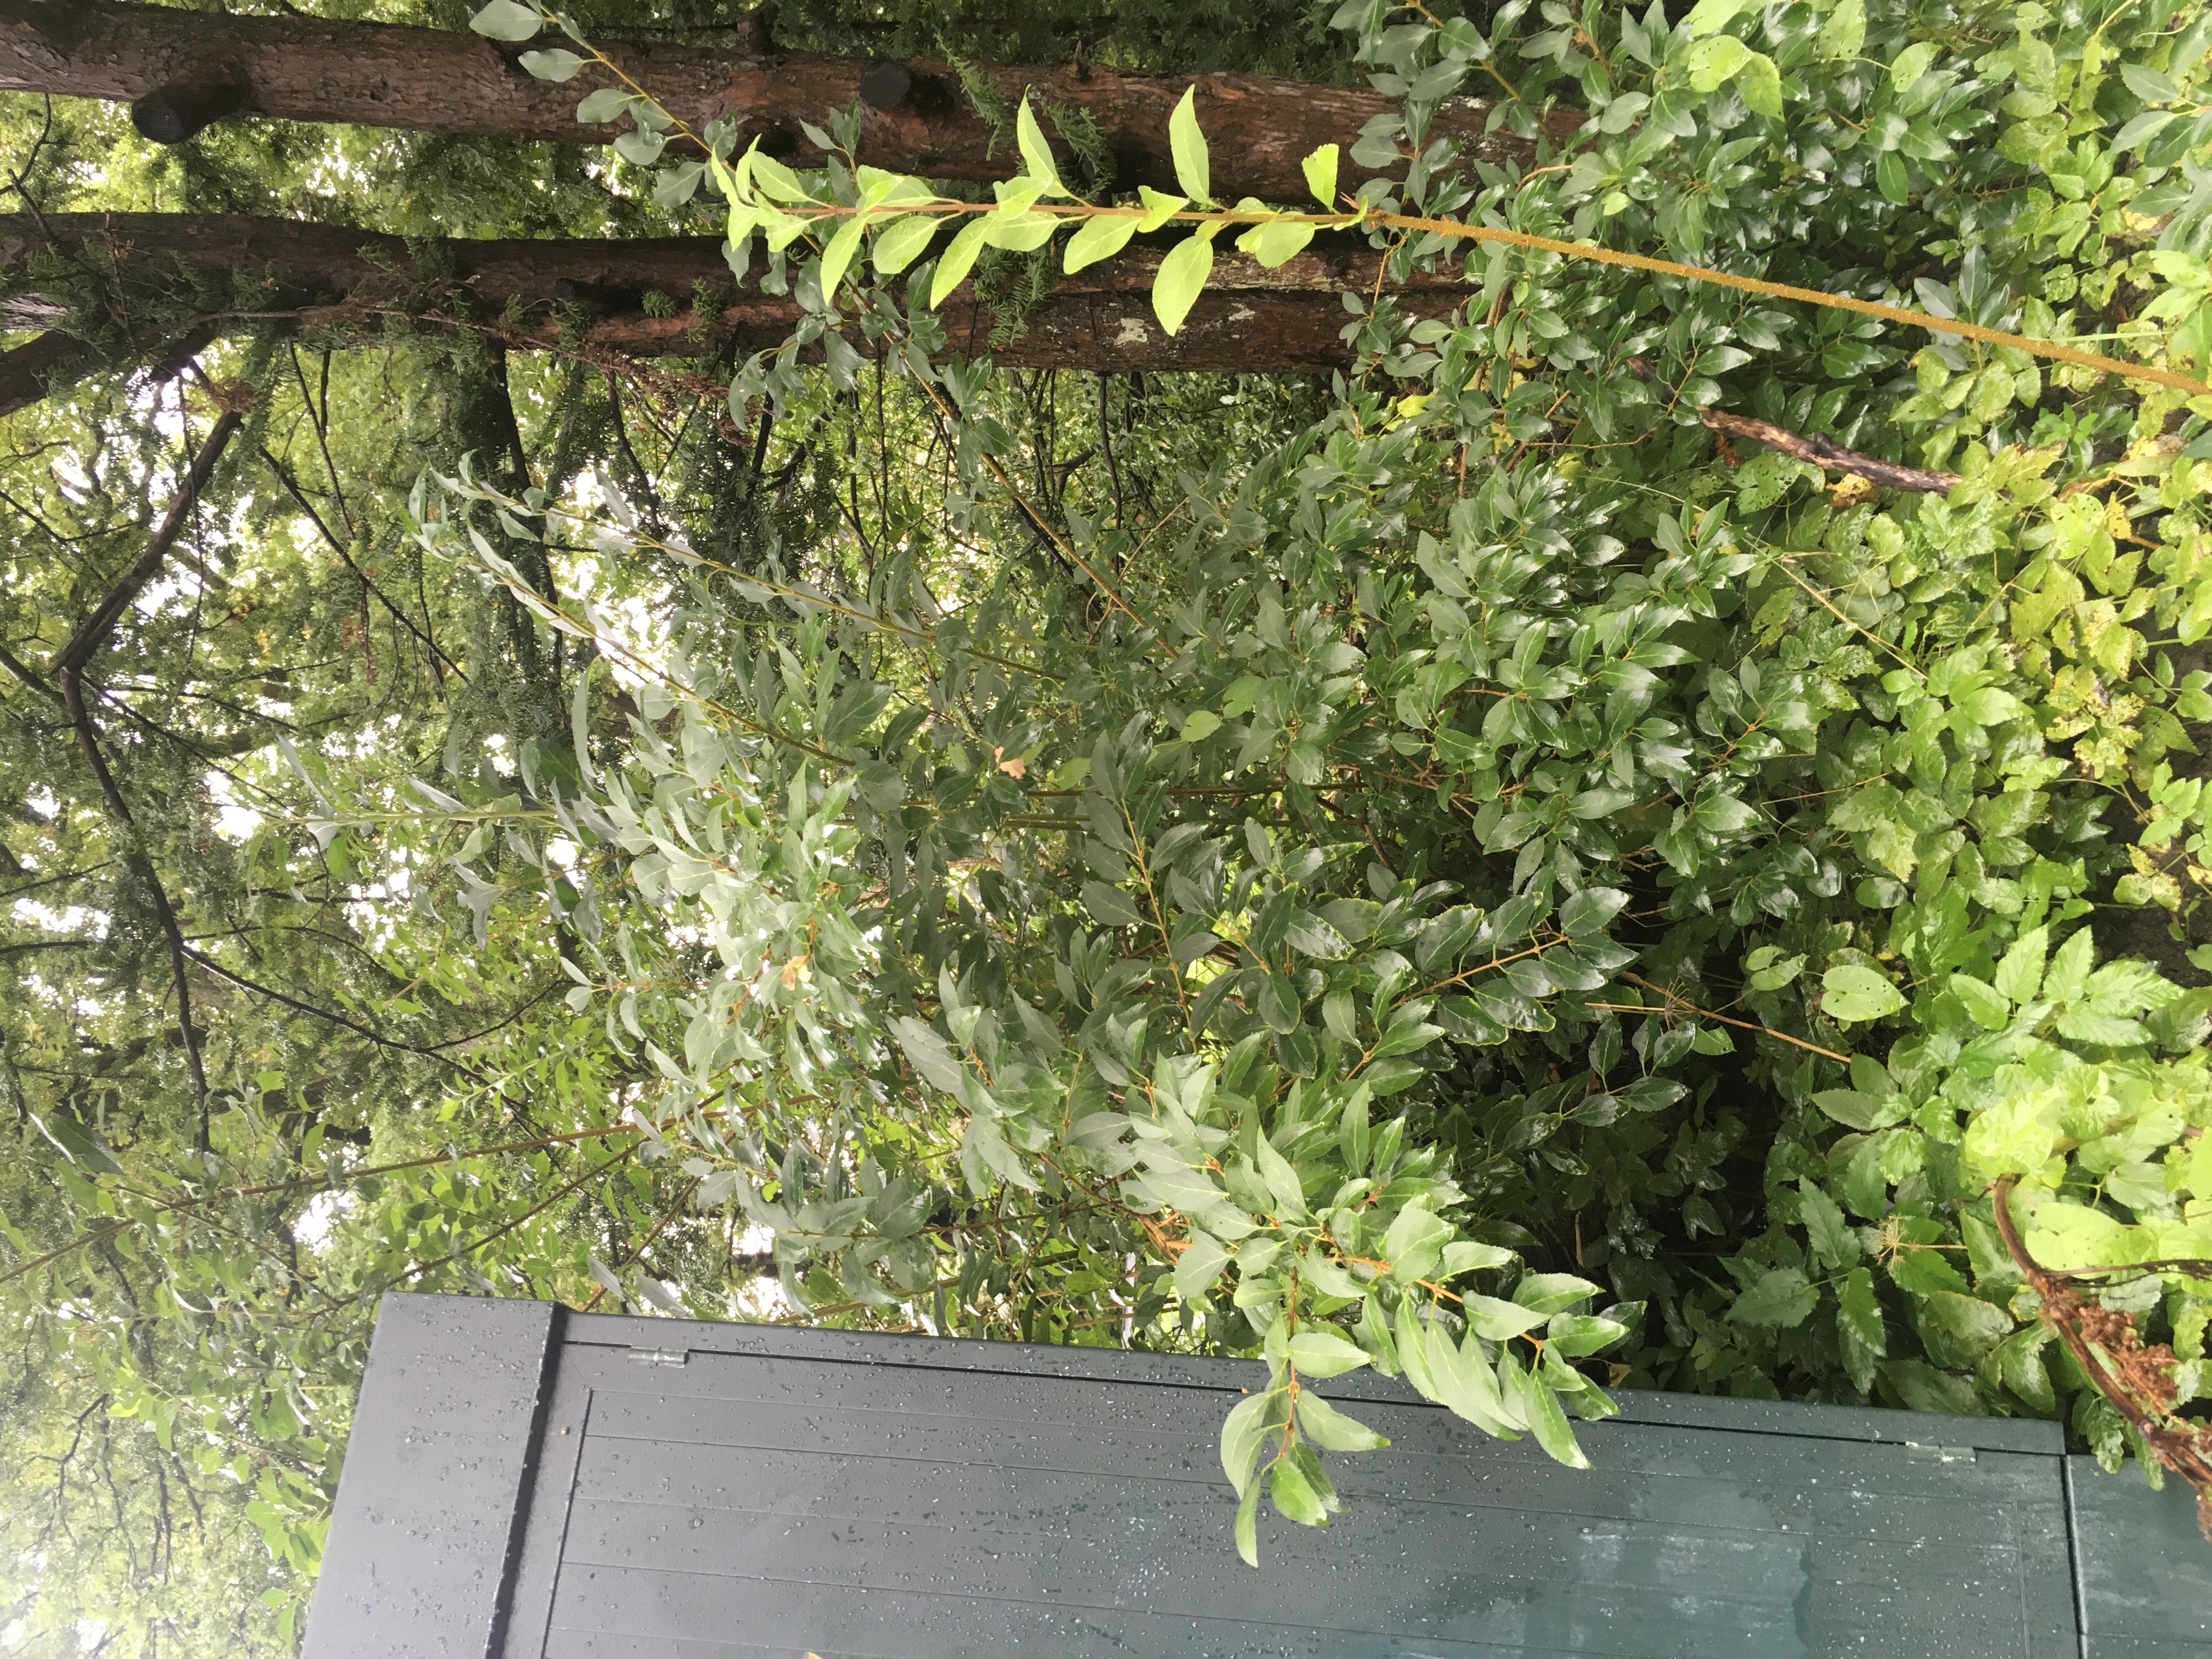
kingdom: Plantae
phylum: Tracheophyta
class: Magnoliopsida
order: Lamiales
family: Oleaceae
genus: Forsythia
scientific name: Forsythia intermedia
